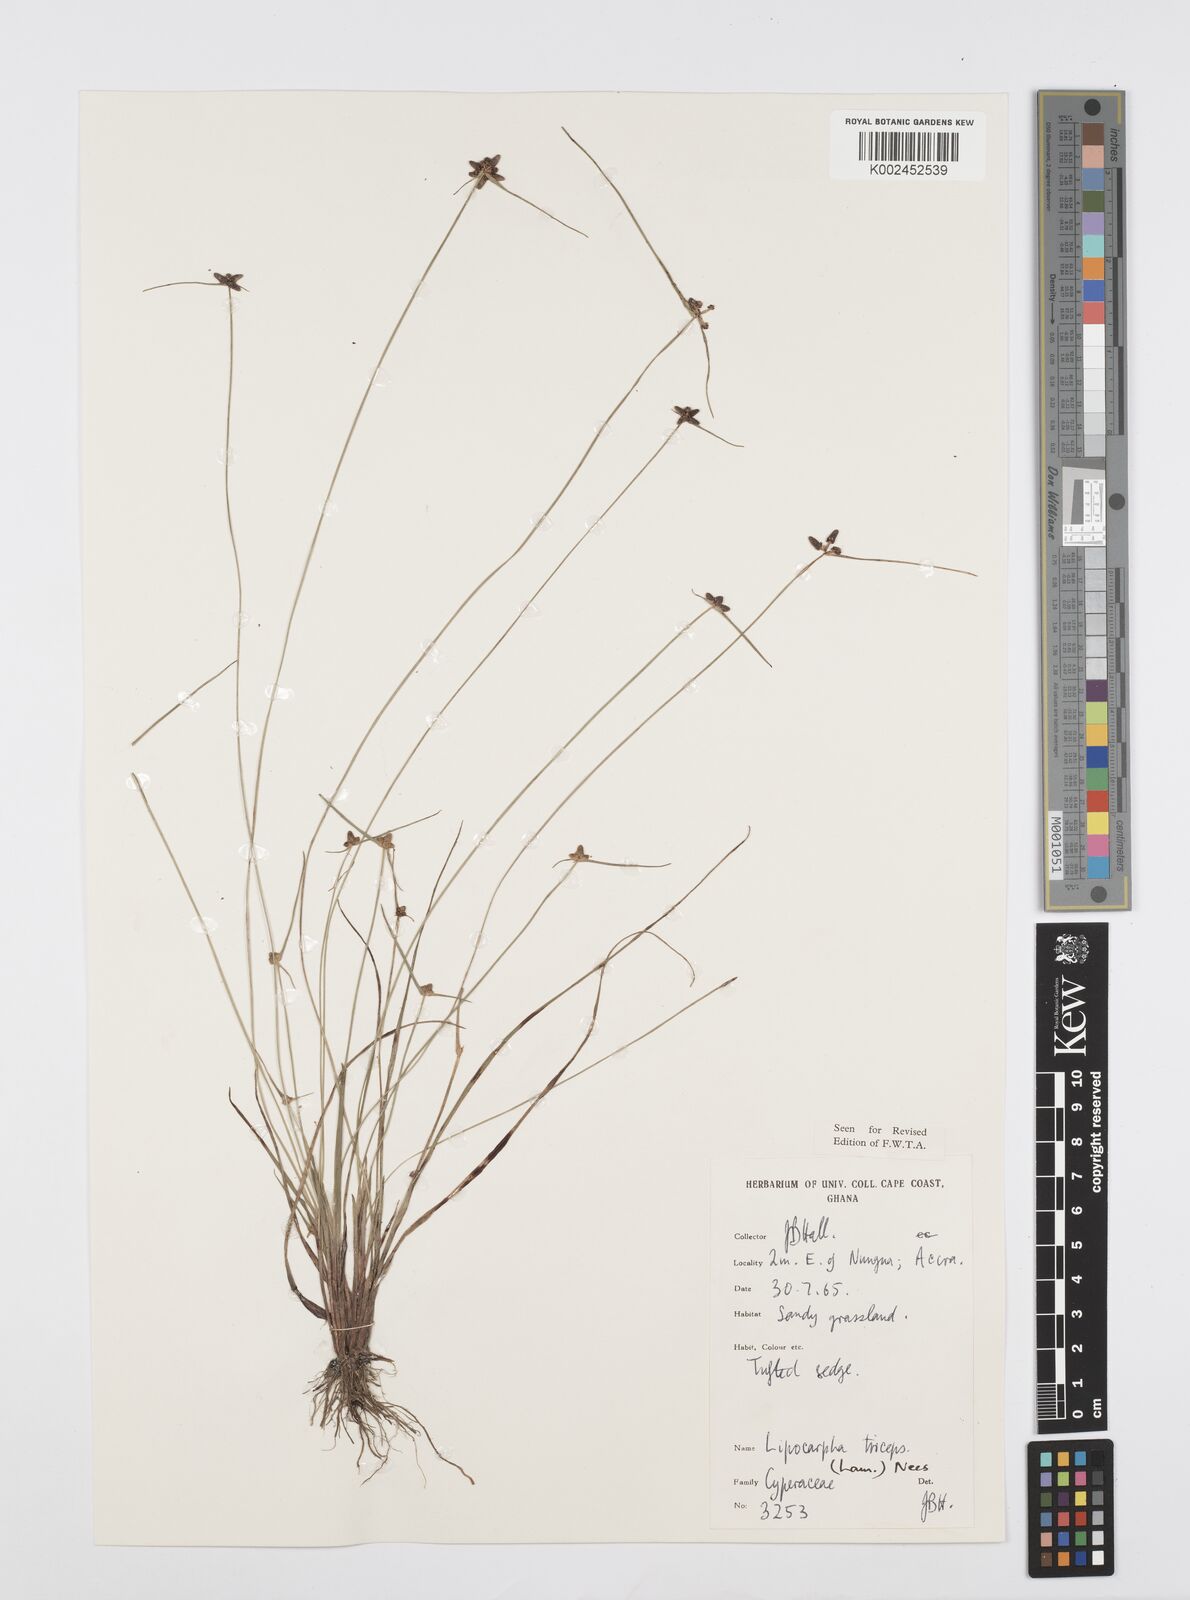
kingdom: Plantae
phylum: Tracheophyta
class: Liliopsida
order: Poales
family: Cyperaceae
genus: Cyperus
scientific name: Cyperus filiformis
